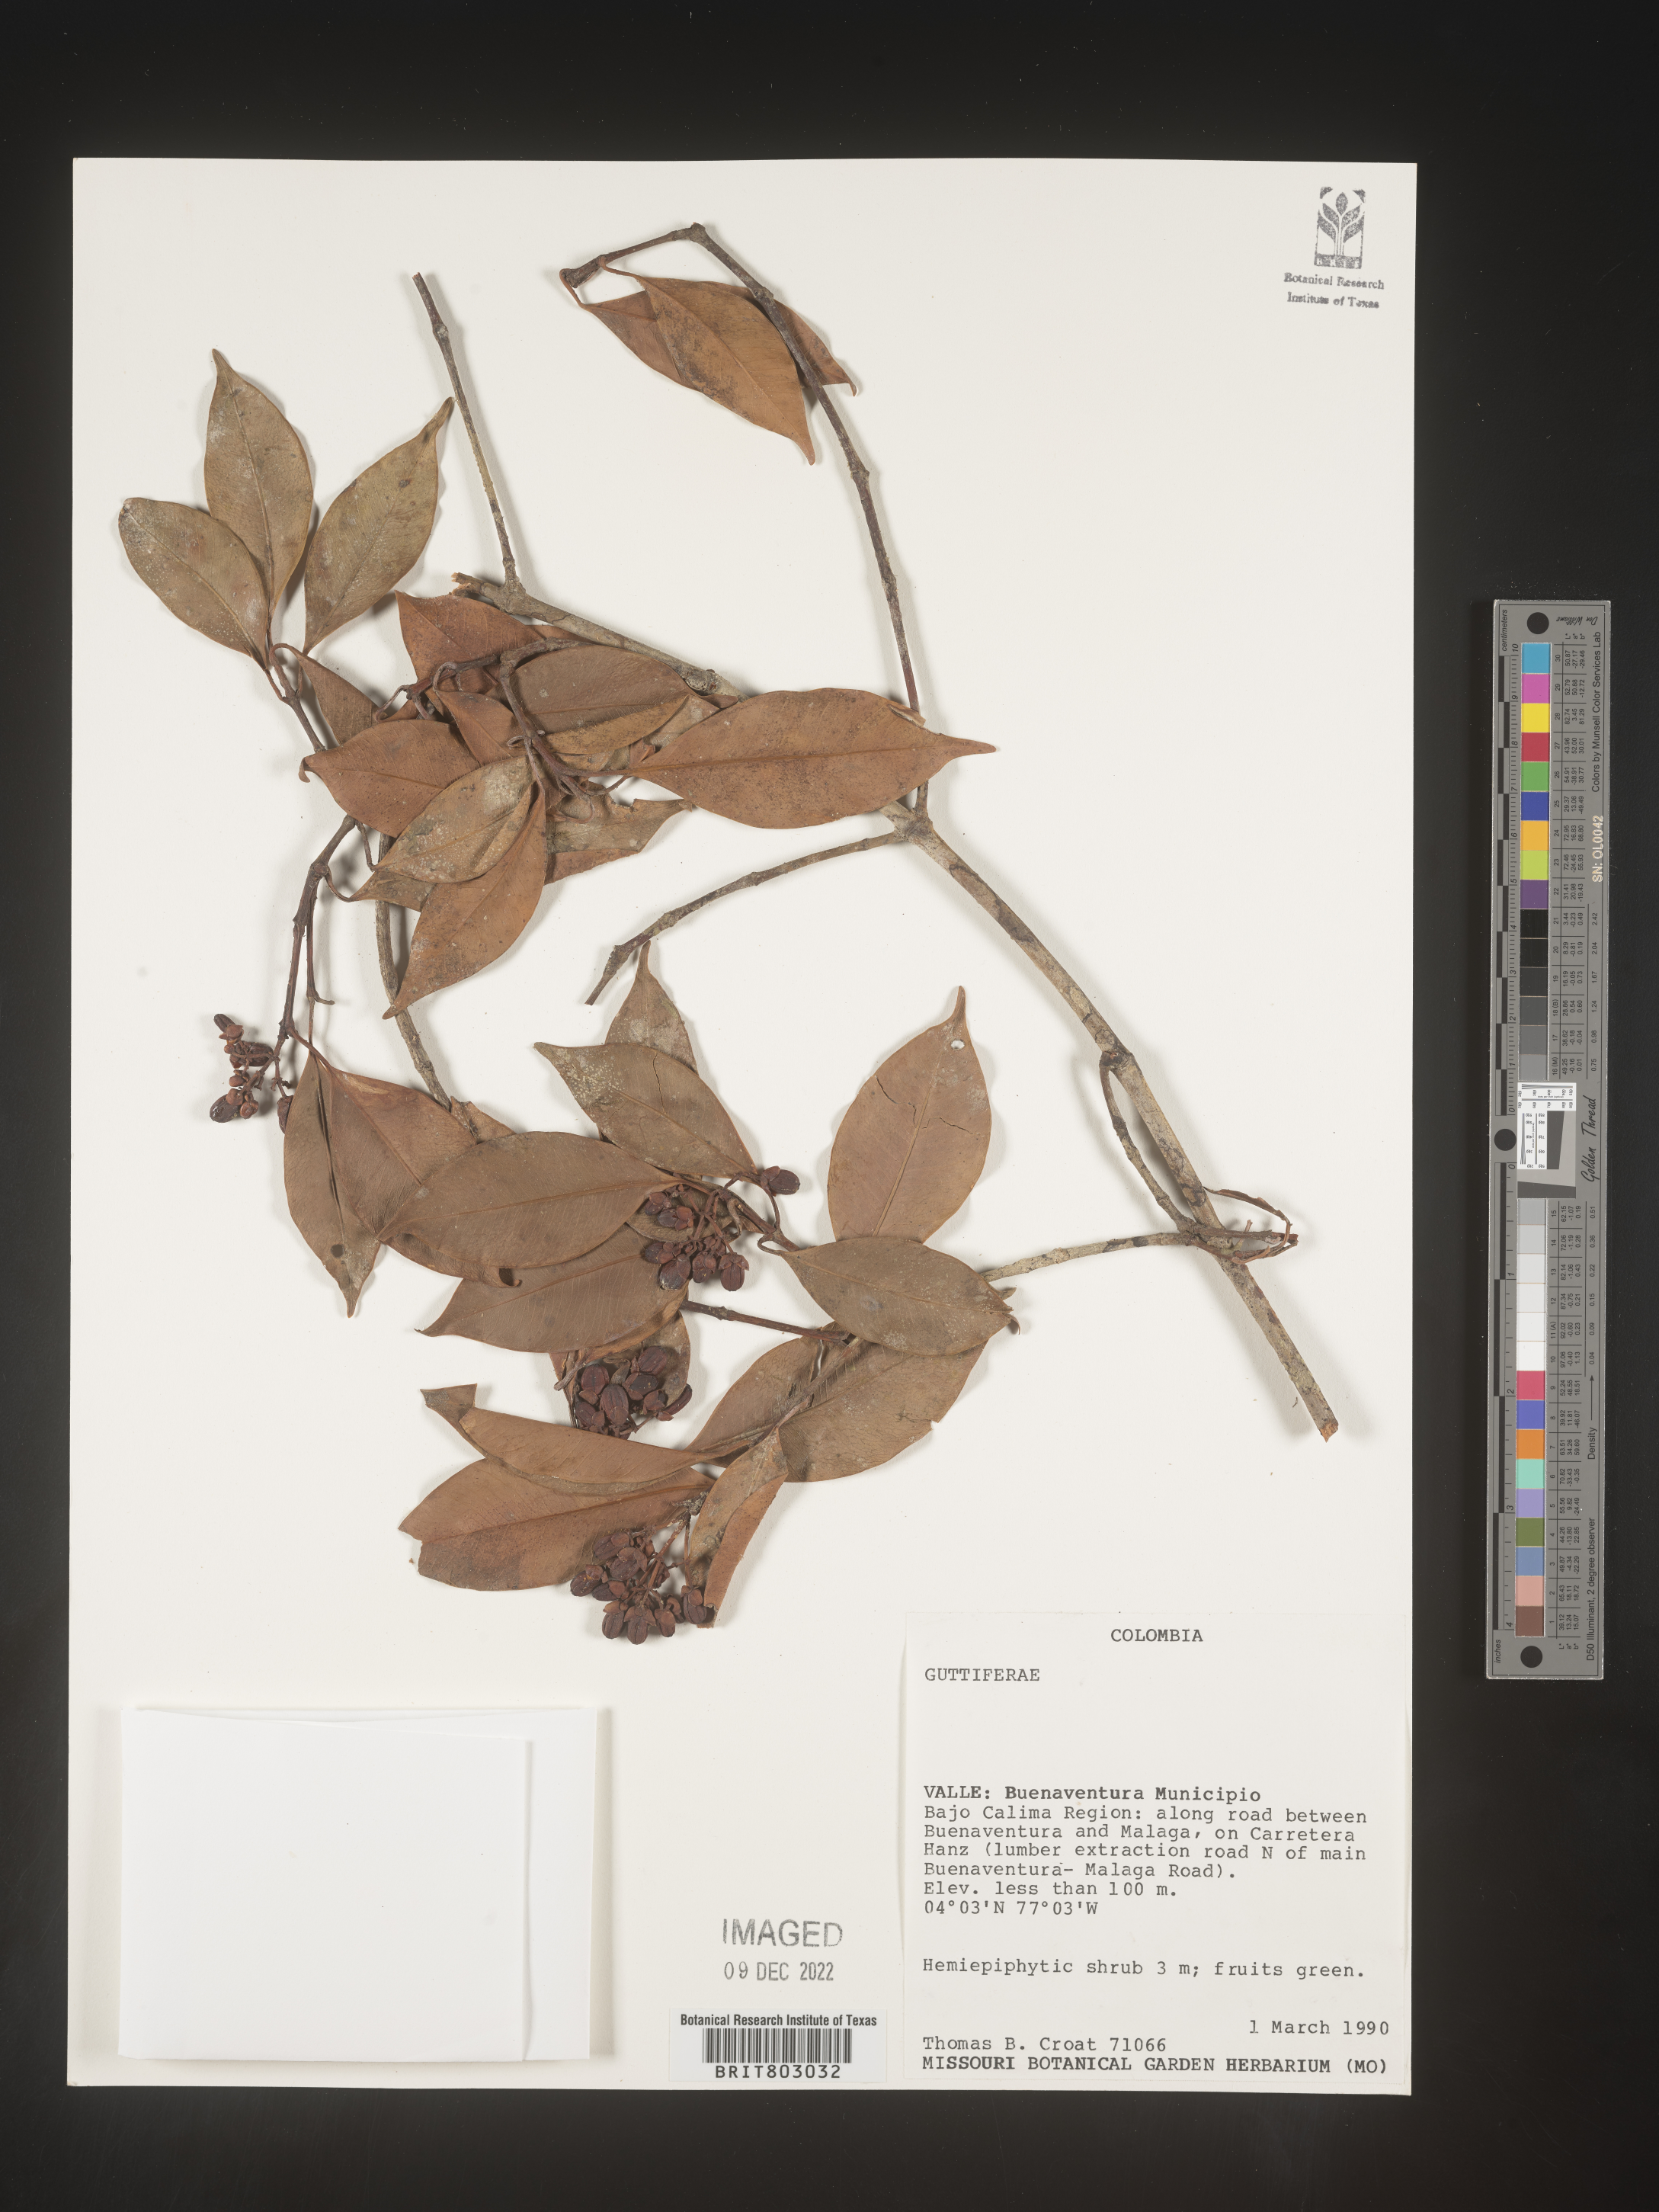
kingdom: Plantae
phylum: Tracheophyta
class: Magnoliopsida
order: Malpighiales
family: Clusiaceae
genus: Symphonia
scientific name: Symphonia
